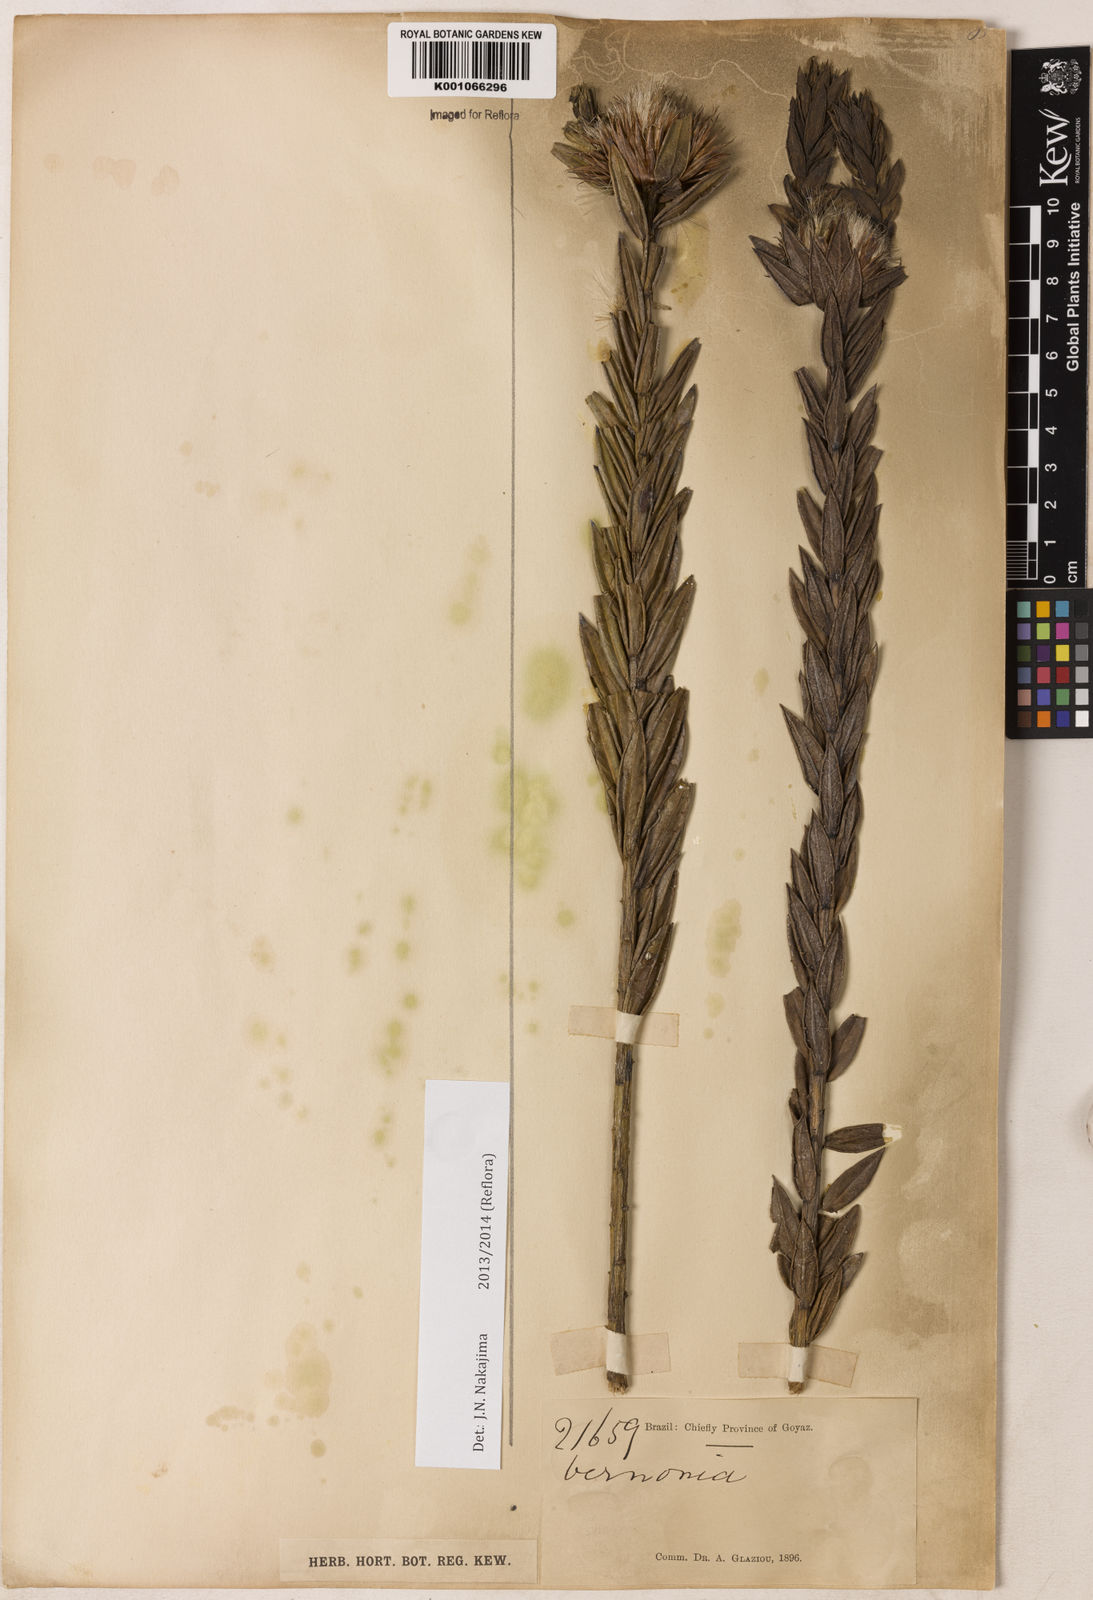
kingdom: Plantae
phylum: Tracheophyta
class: Magnoliopsida
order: Asterales
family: Asteraceae
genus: Vernonia
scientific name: Vernonia poissoniana
